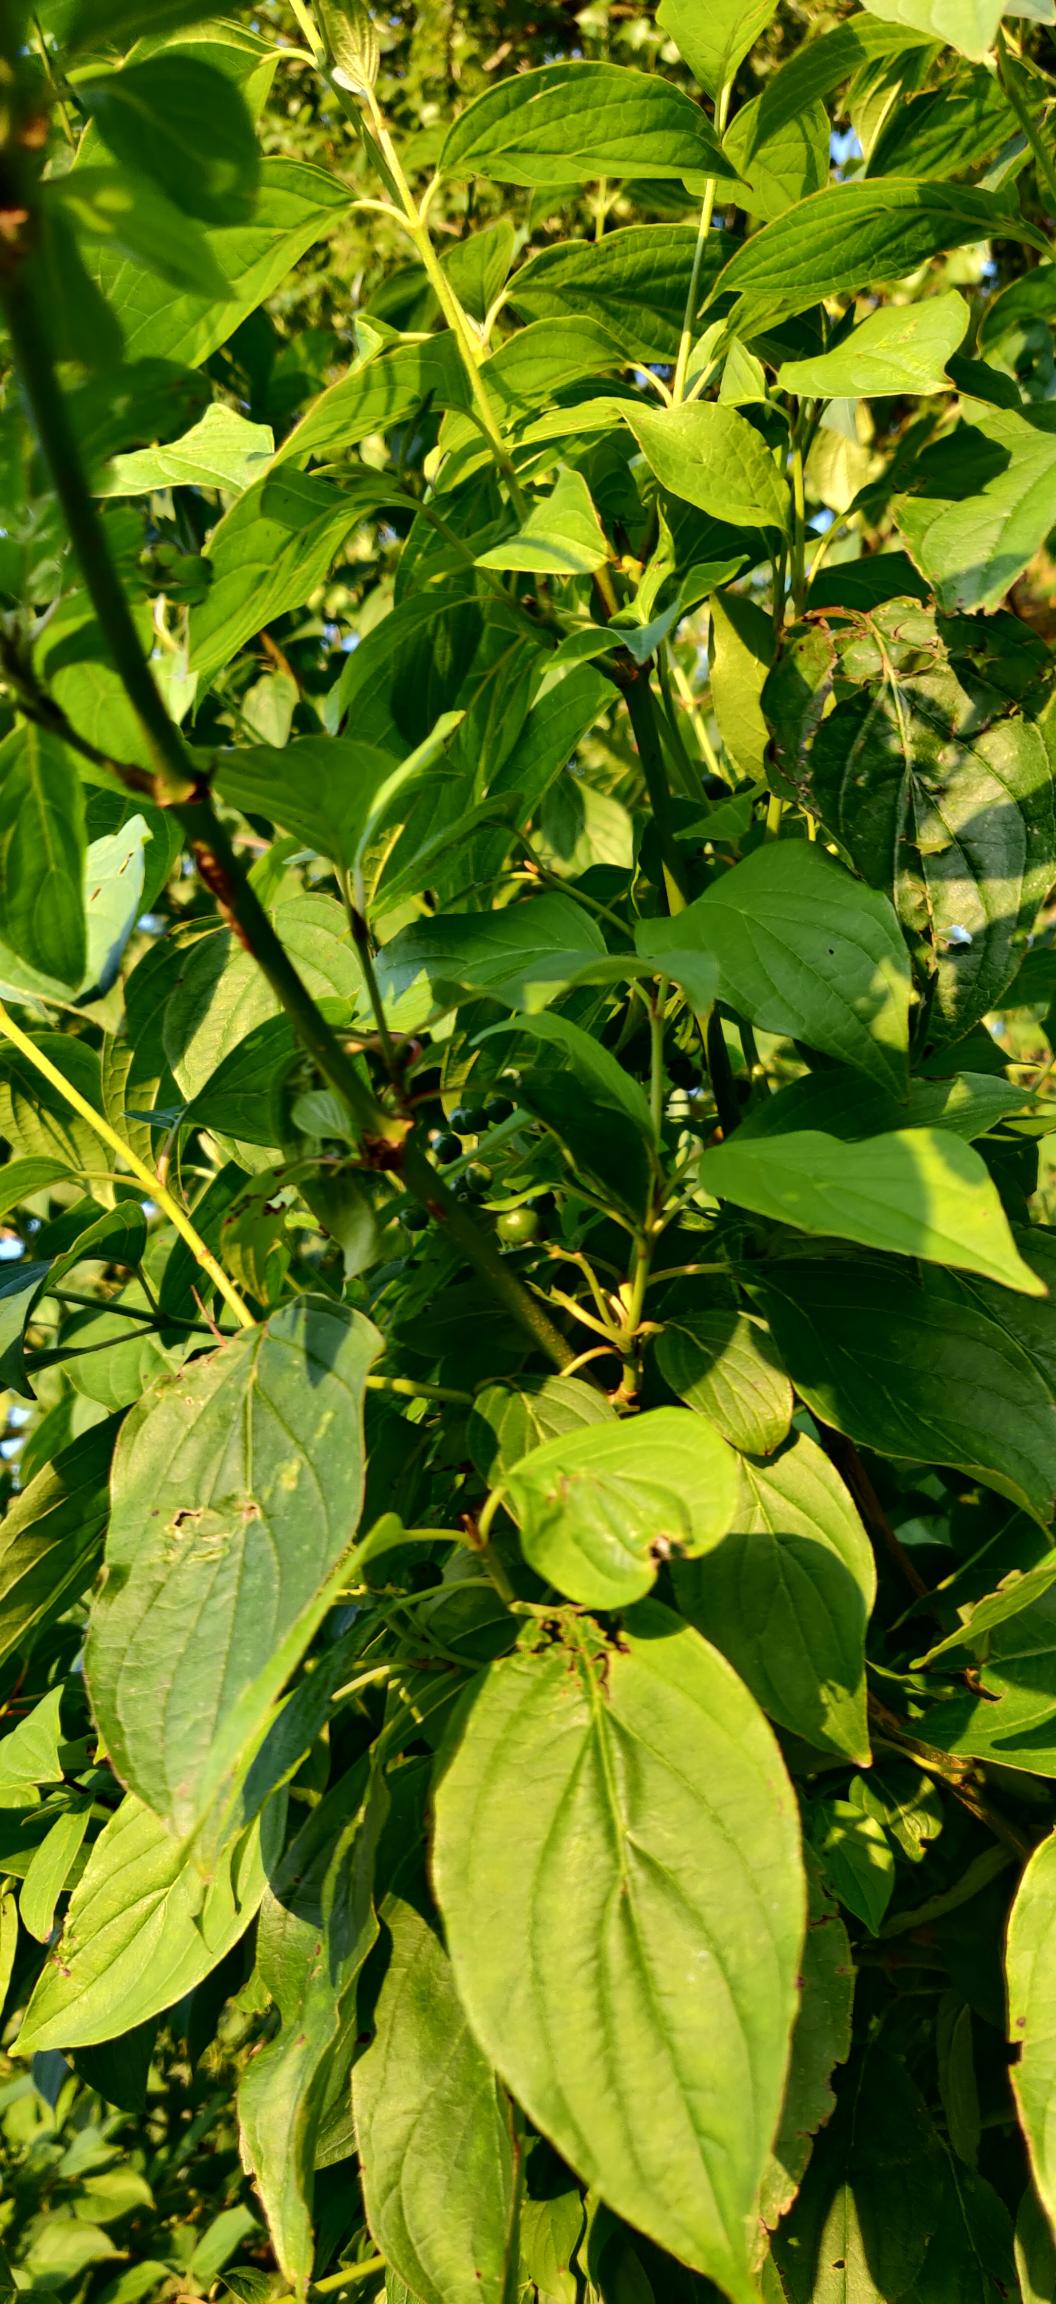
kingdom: Plantae
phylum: Tracheophyta
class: Magnoliopsida
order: Cornales
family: Cornaceae
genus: Cornus
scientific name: Cornus sanguinea
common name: Rød kornel
